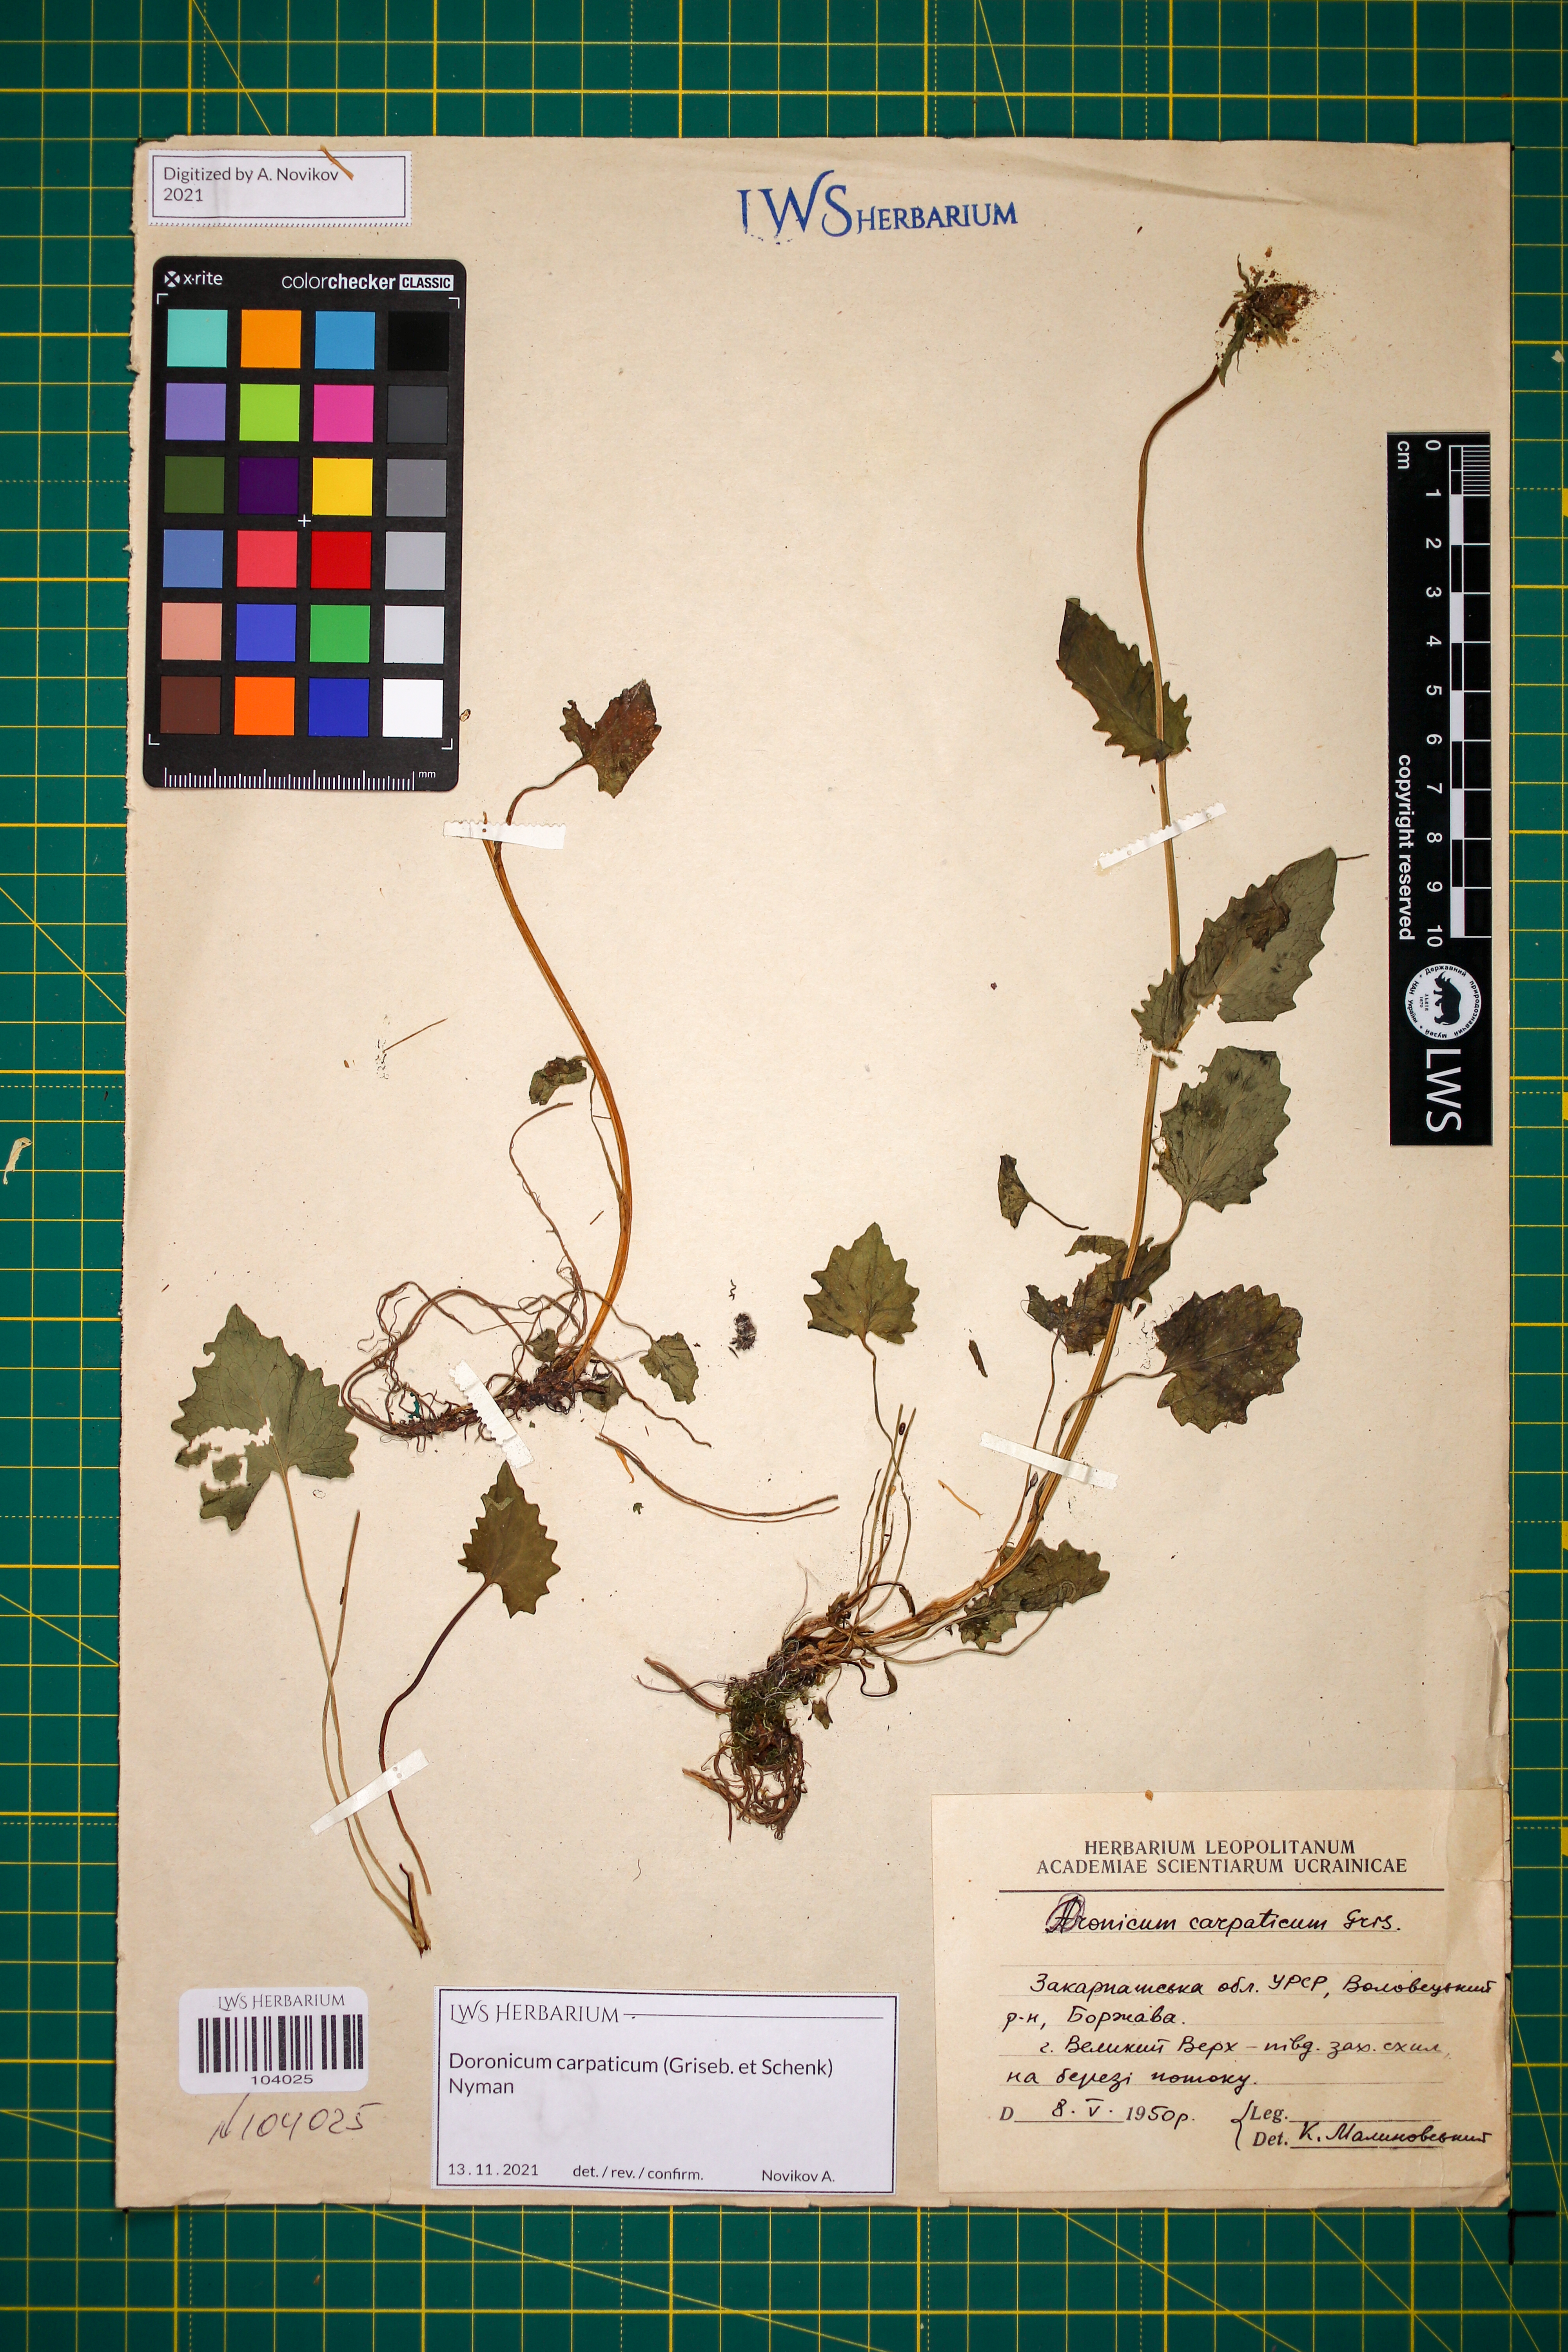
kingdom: Plantae
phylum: Tracheophyta
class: Magnoliopsida
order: Asterales
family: Asteraceae
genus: Doronicum
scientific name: Doronicum carpaticum
